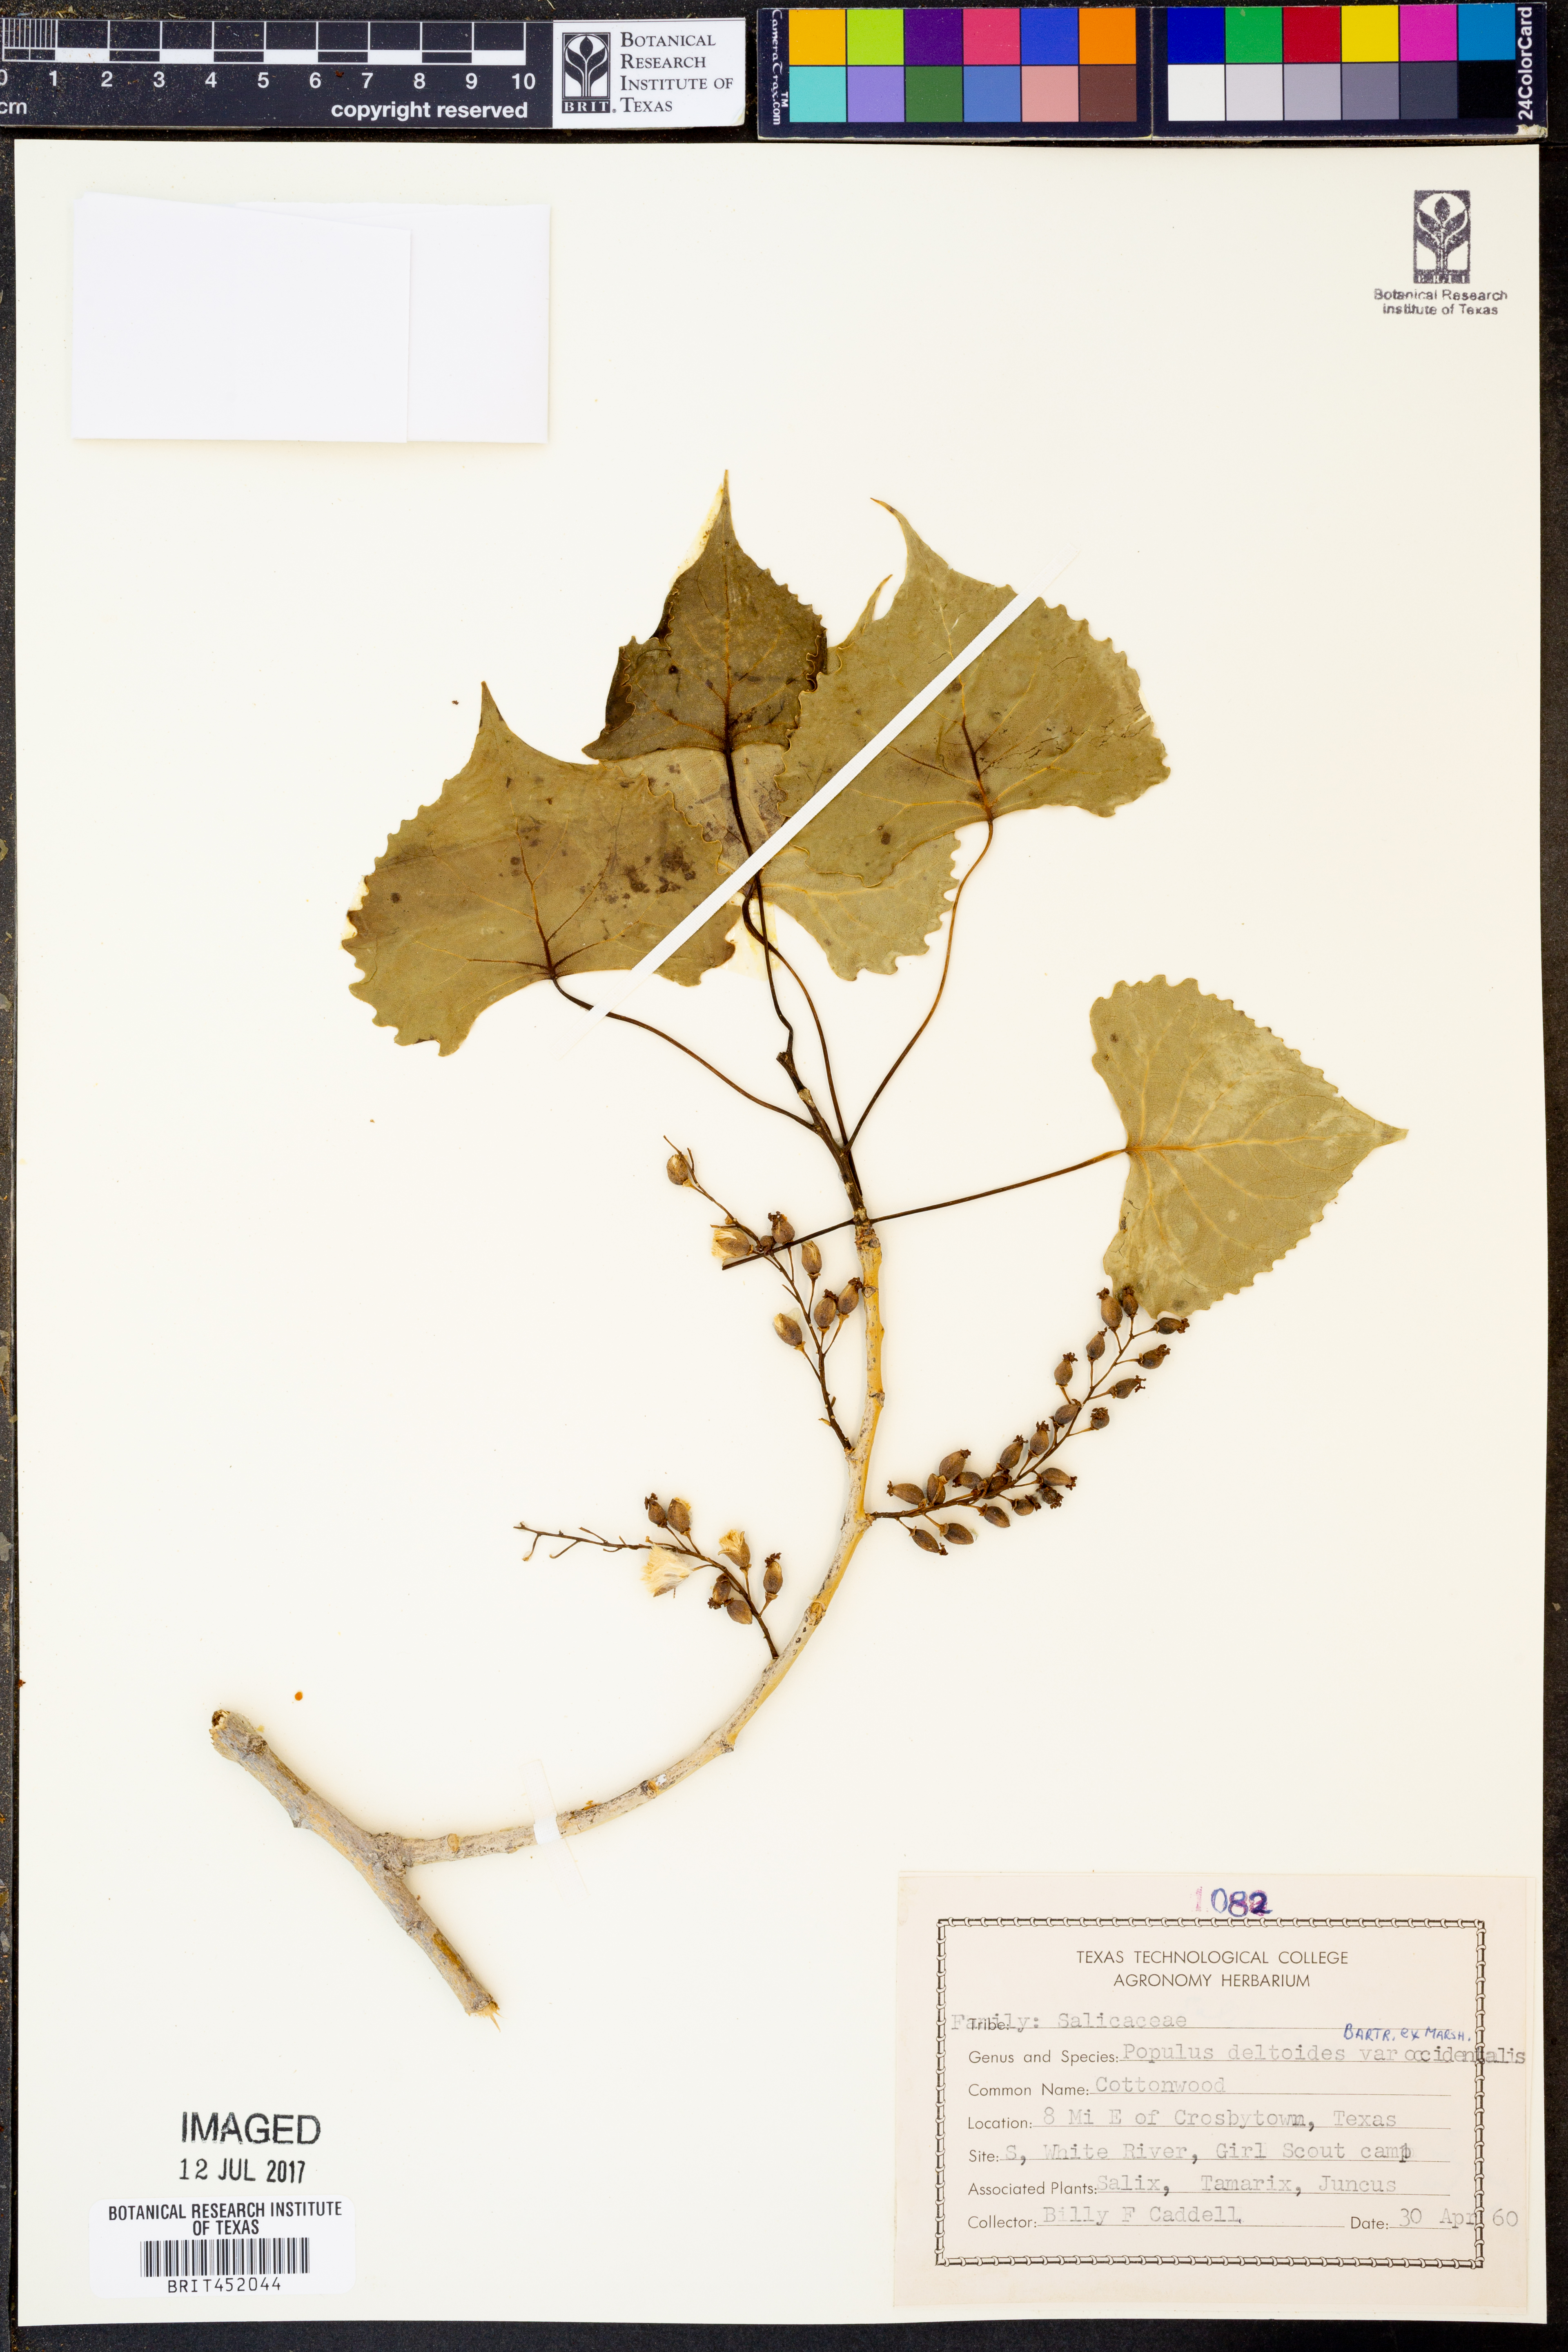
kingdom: Plantae
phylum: Tracheophyta
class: Magnoliopsida
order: Malpighiales
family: Salicaceae
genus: Populus
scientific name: Populus deltoides
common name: Eastern cottonwood
